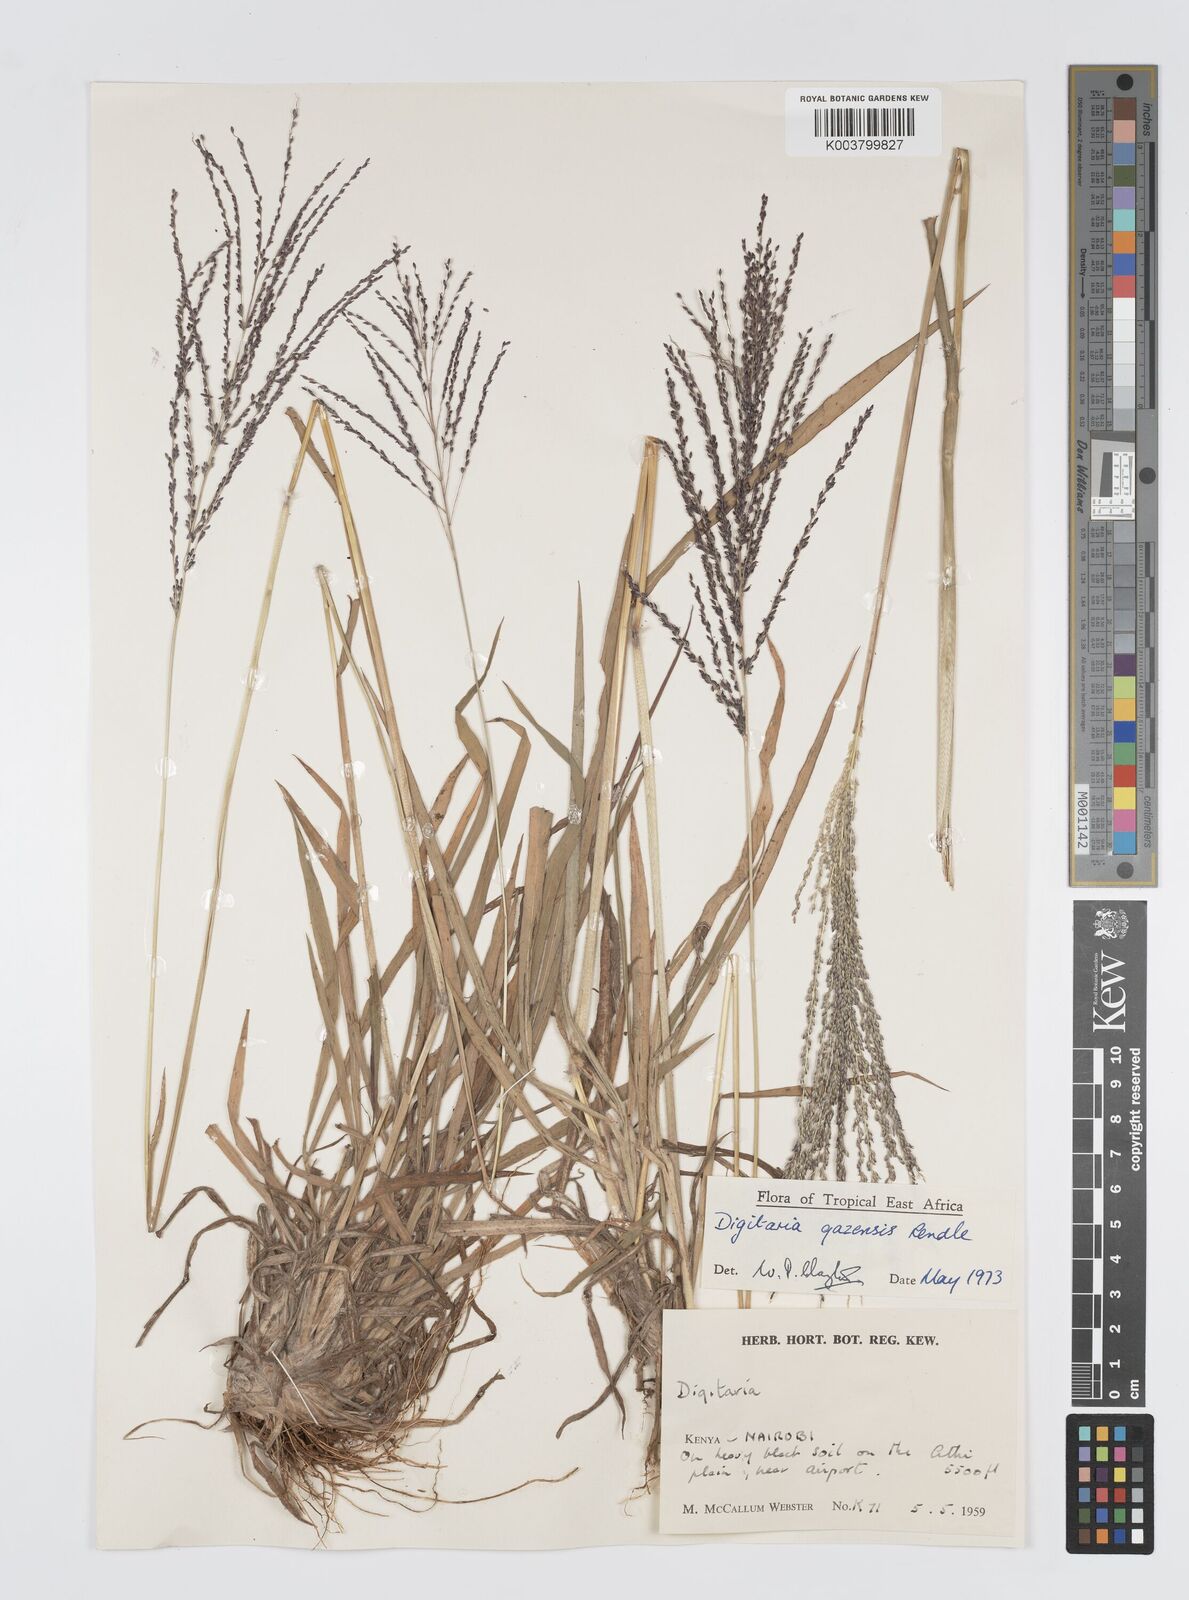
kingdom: Plantae
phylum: Tracheophyta
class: Liliopsida
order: Poales
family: Poaceae
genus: Digitaria
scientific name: Digitaria gazensis
